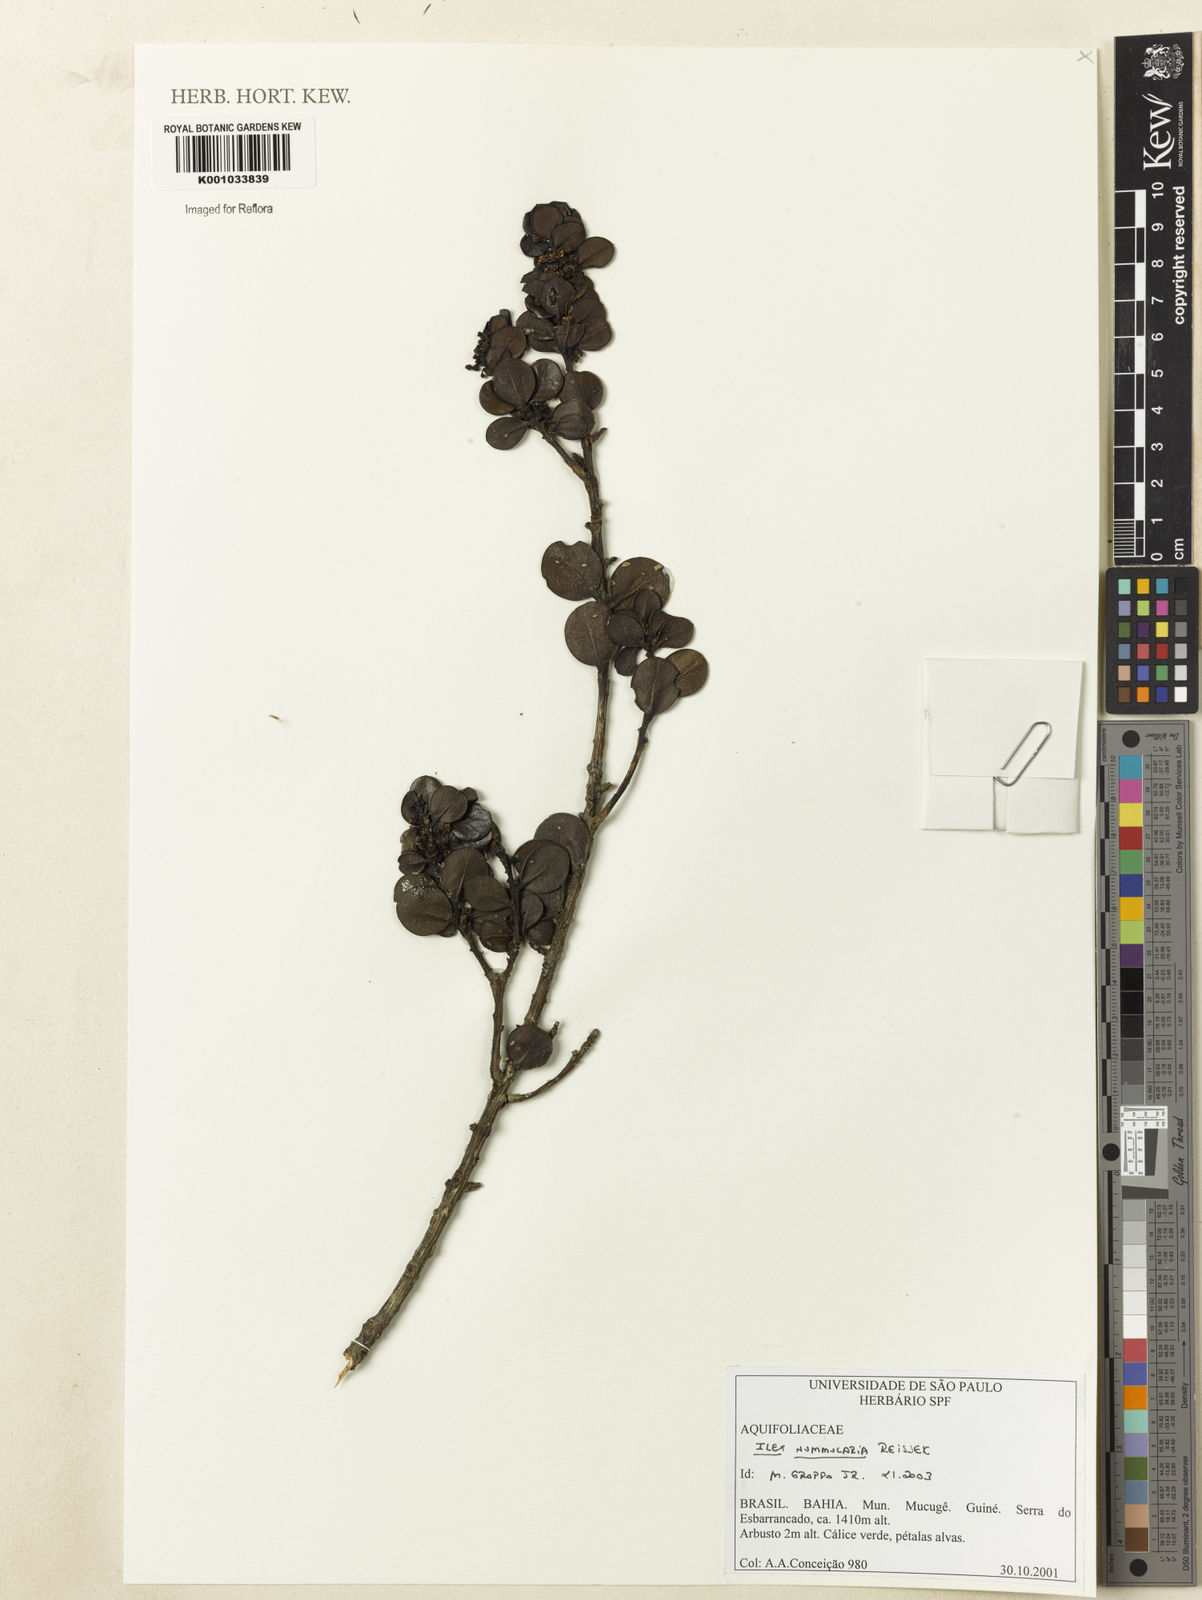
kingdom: Plantae
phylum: Tracheophyta
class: Magnoliopsida
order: Aquifoliales
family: Aquifoliaceae
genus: Ilex
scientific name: Ilex nummularia
